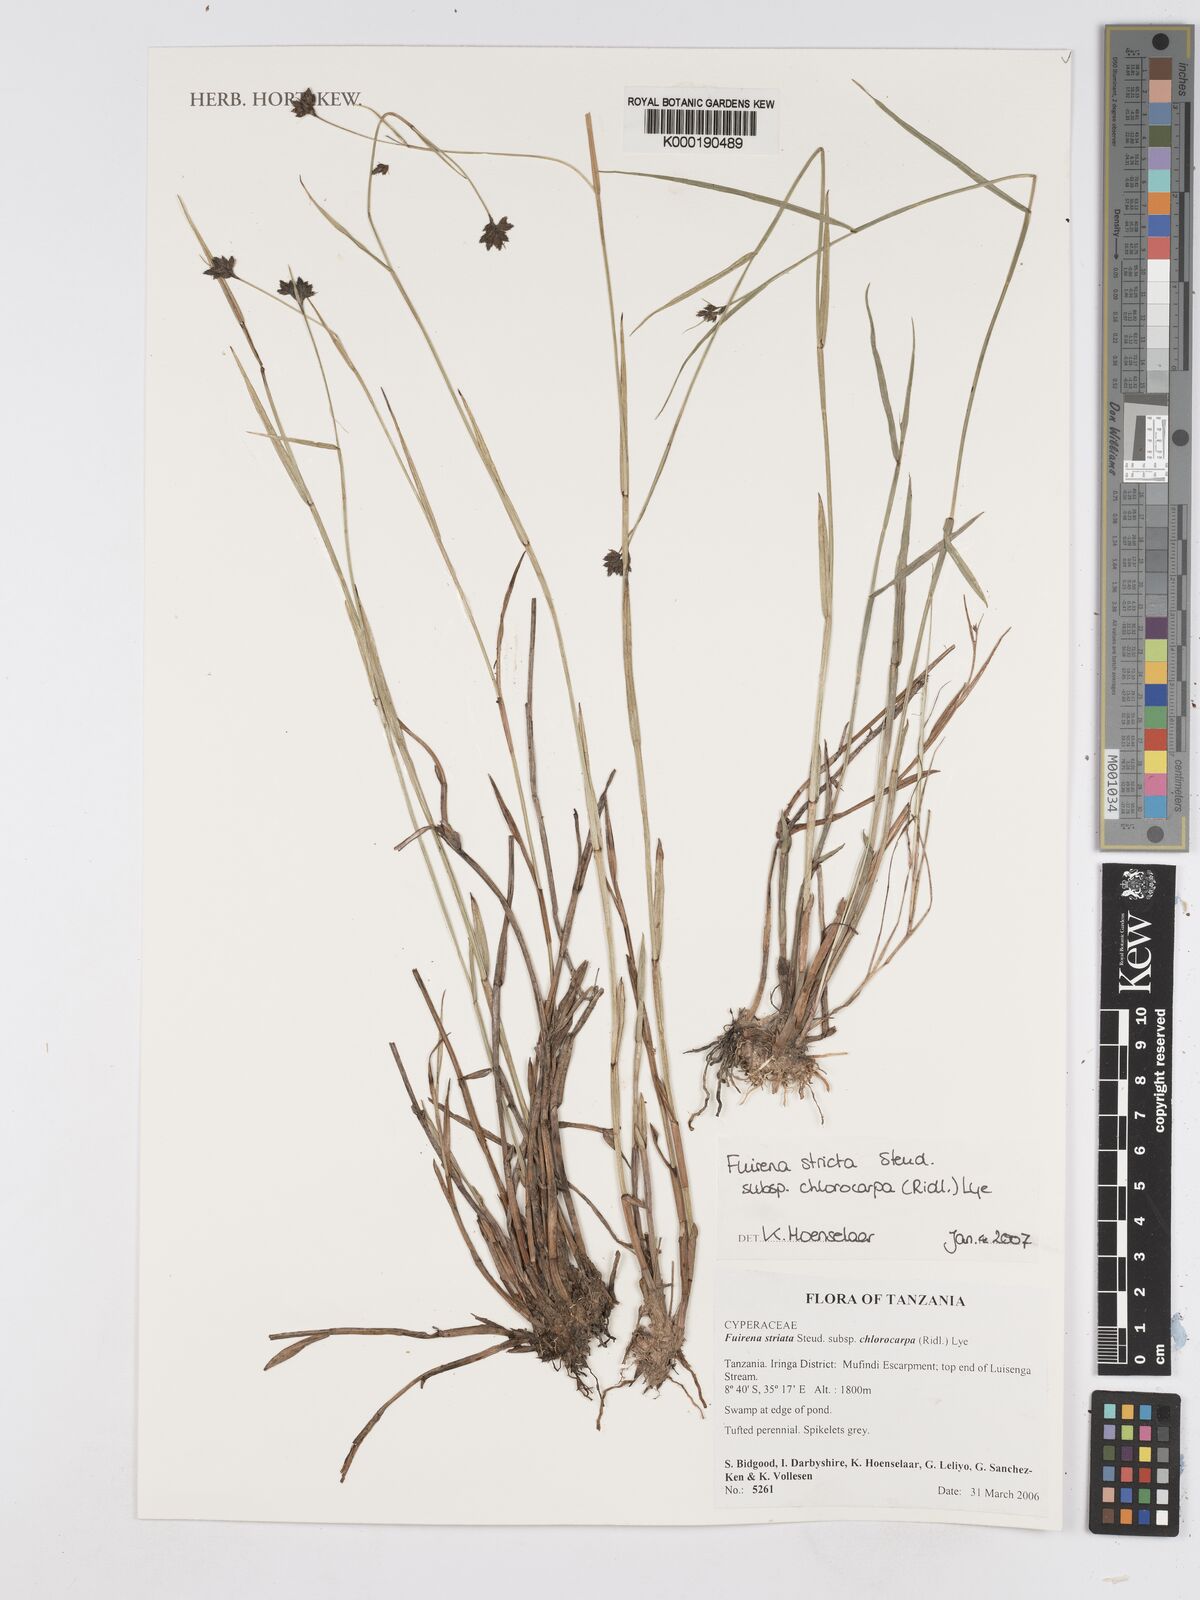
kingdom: Plantae
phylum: Tracheophyta
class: Liliopsida
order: Poales
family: Cyperaceae
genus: Fuirena
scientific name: Fuirena
